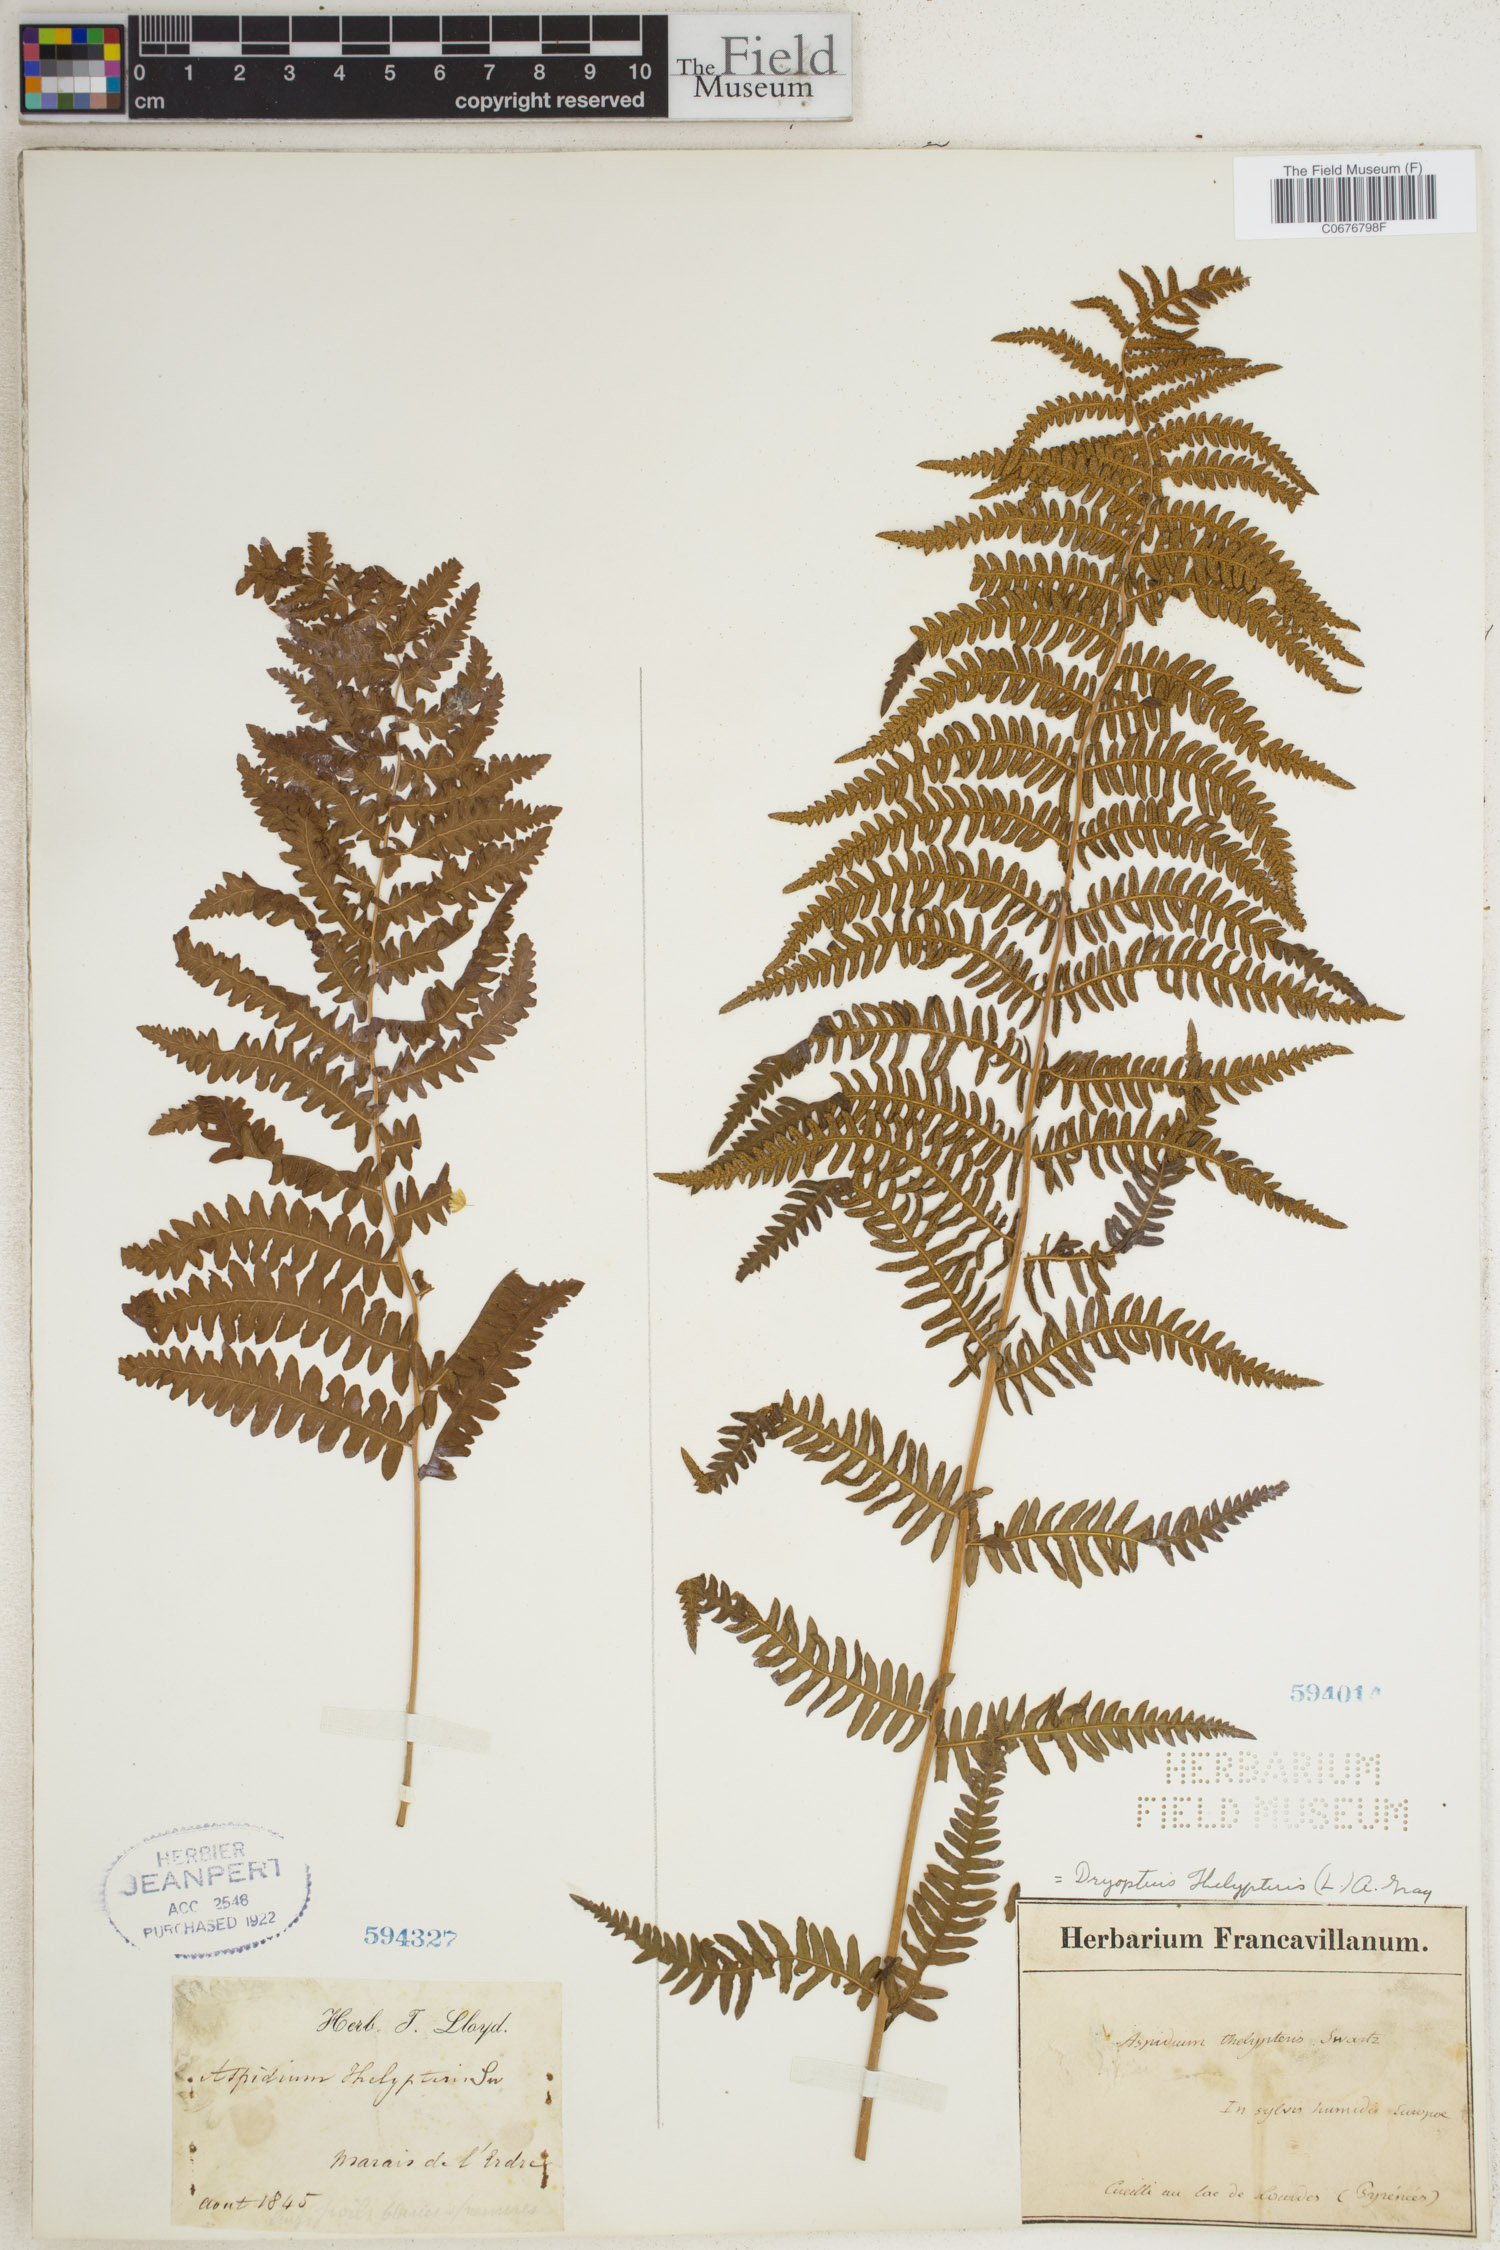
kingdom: Plantae
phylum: Tracheophyta
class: Polypodiopsida
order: Polypodiales
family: Thelypteridaceae
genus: Thelypteris
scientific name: Thelypteris palustris
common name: Marsh fern
